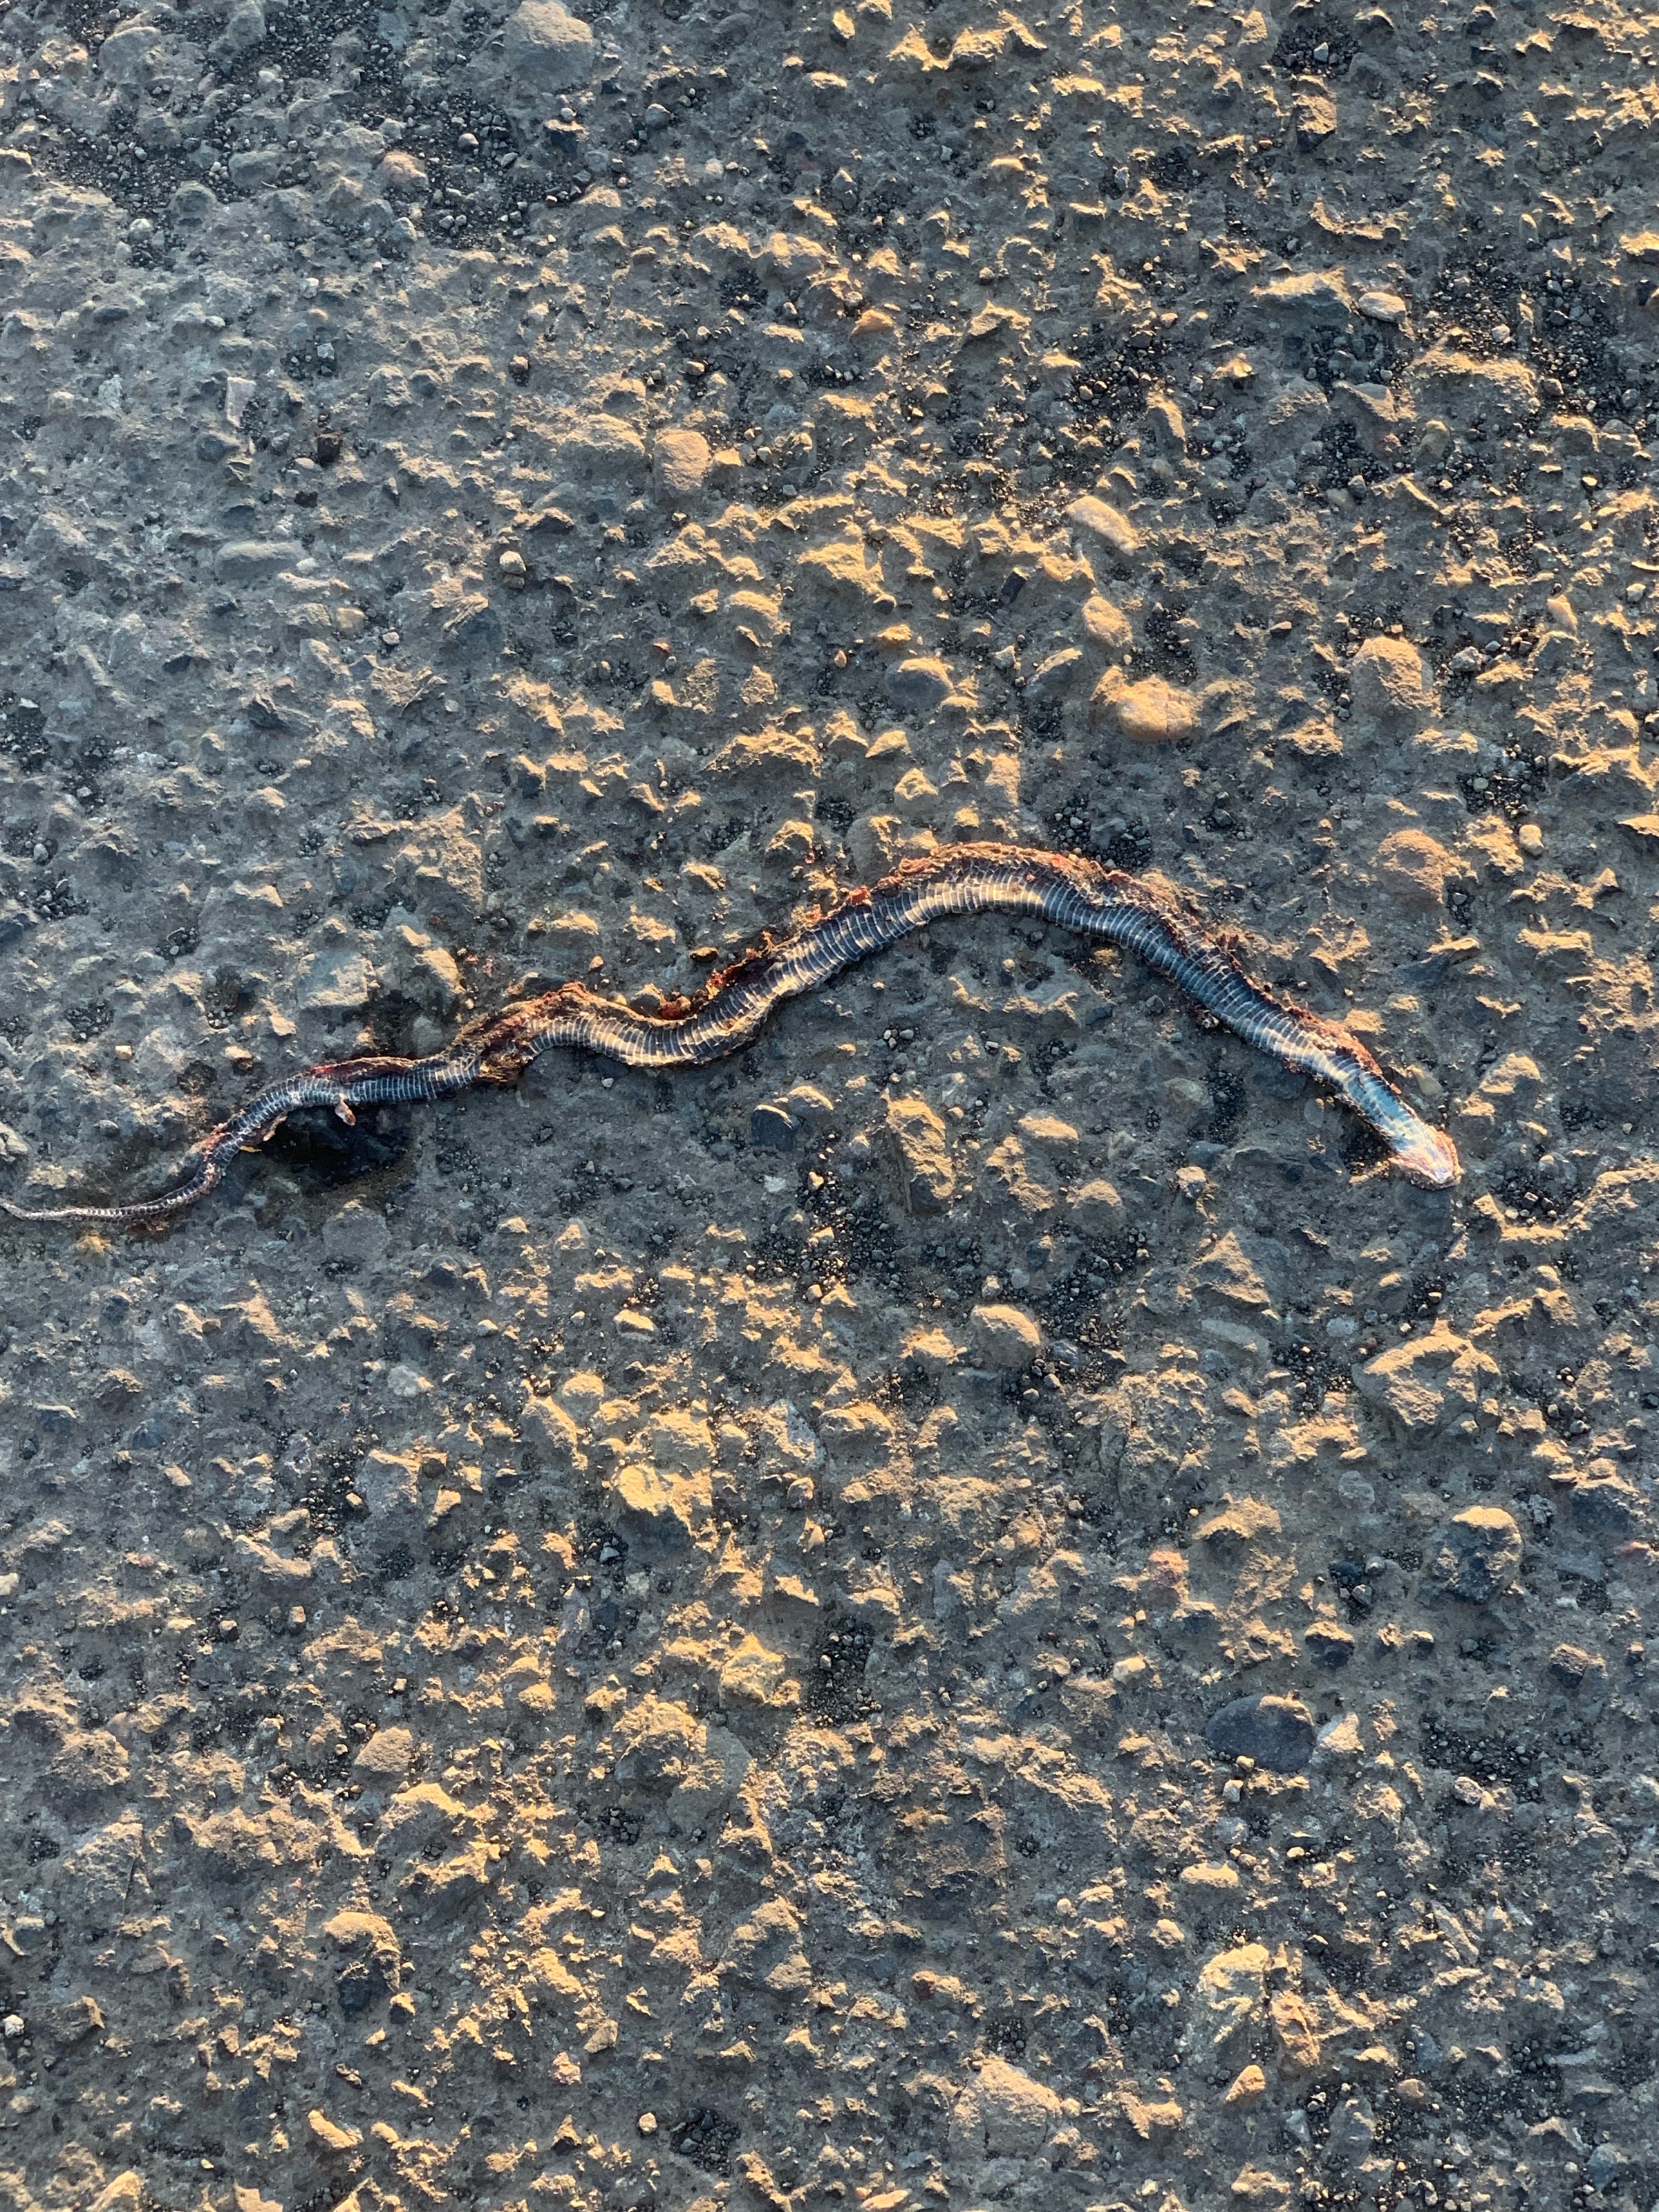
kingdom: Animalia
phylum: Chordata
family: Serpentes
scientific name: Serpentes
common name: Snake
